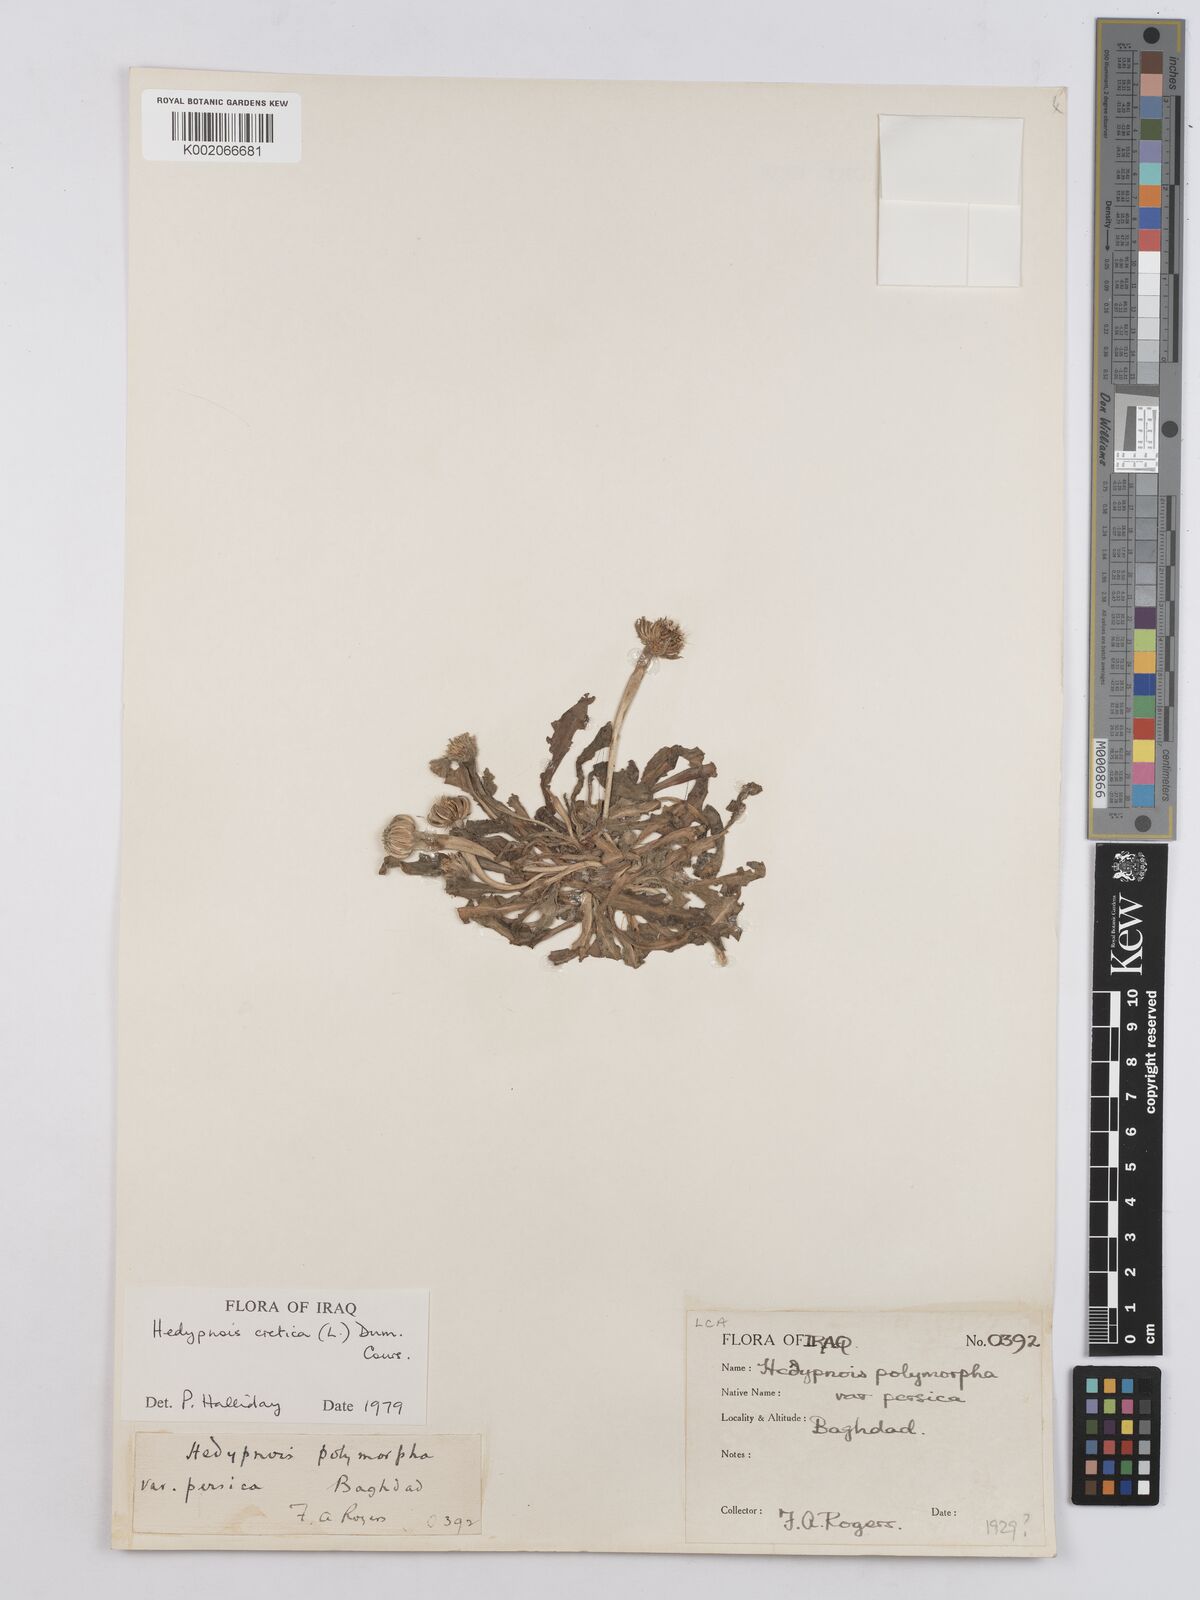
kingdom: Plantae
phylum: Tracheophyta
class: Magnoliopsida
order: Asterales
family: Asteraceae
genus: Hedypnois
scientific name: Hedypnois cretica
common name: Scaly hawkbit
